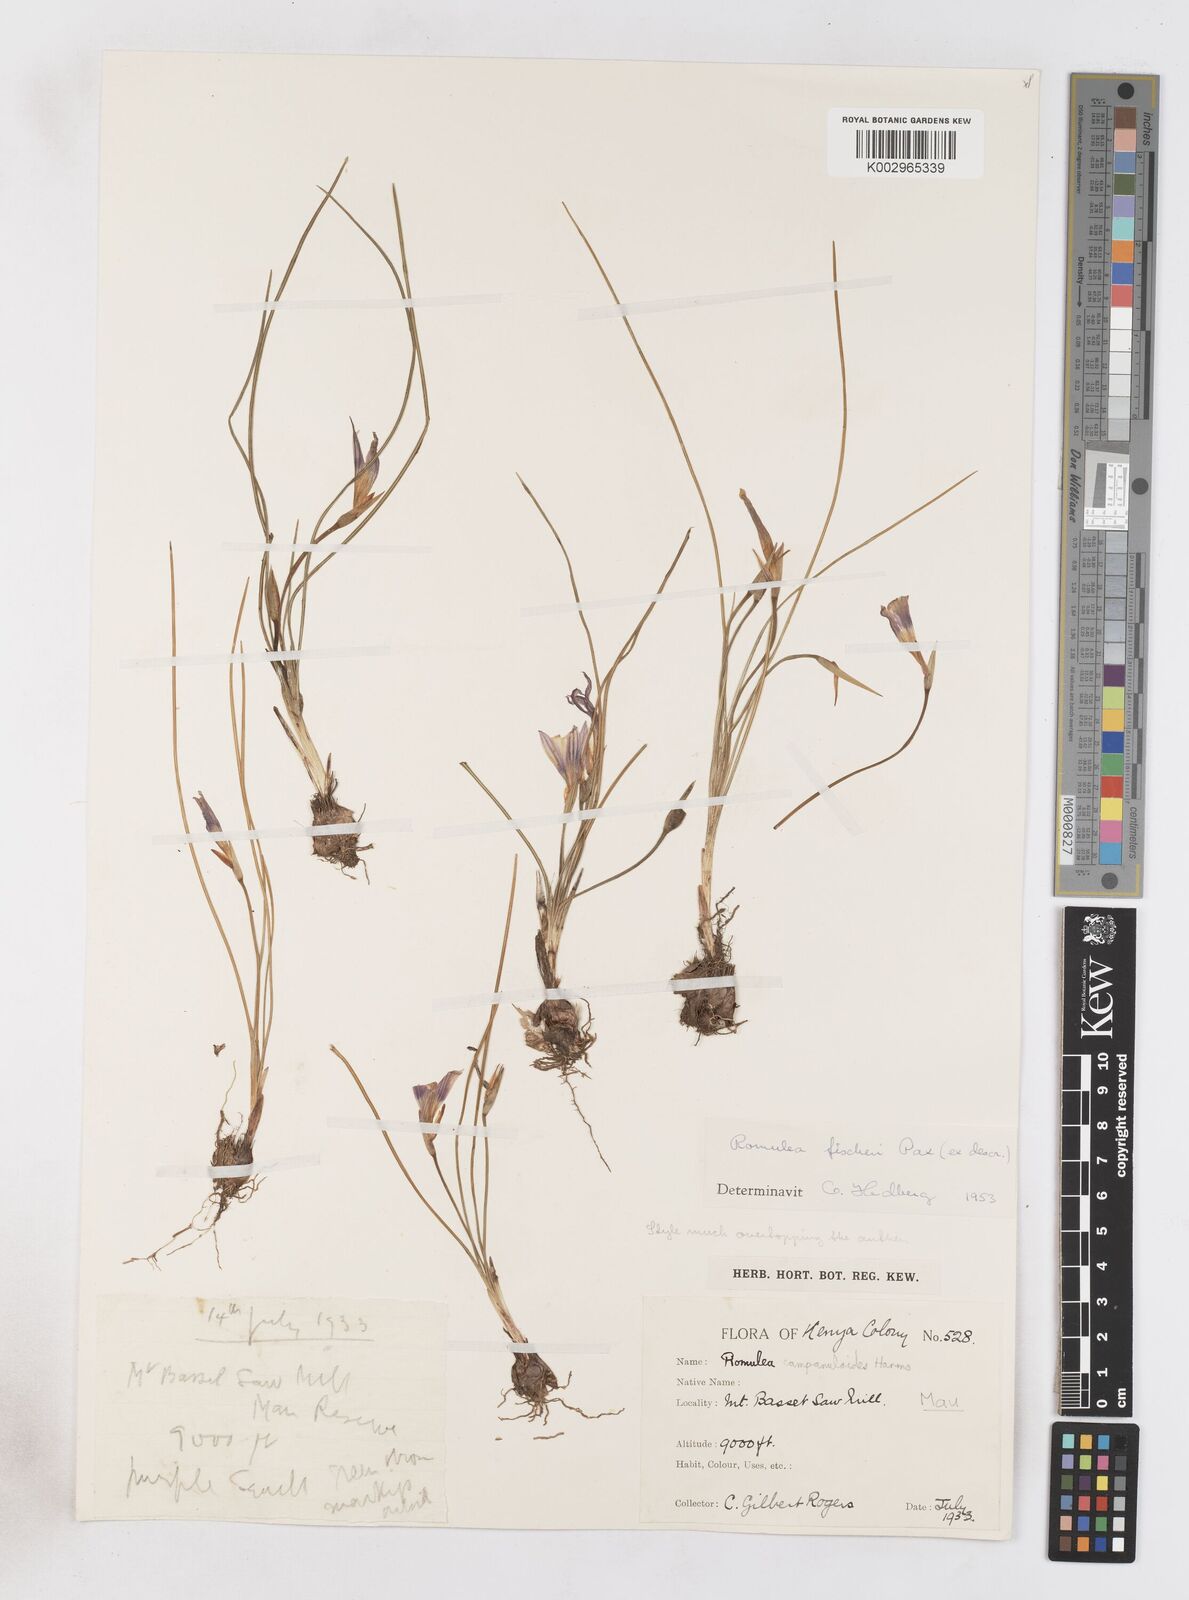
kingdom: Plantae
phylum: Tracheophyta
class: Liliopsida
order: Asparagales
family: Iridaceae
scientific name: Iridaceae
